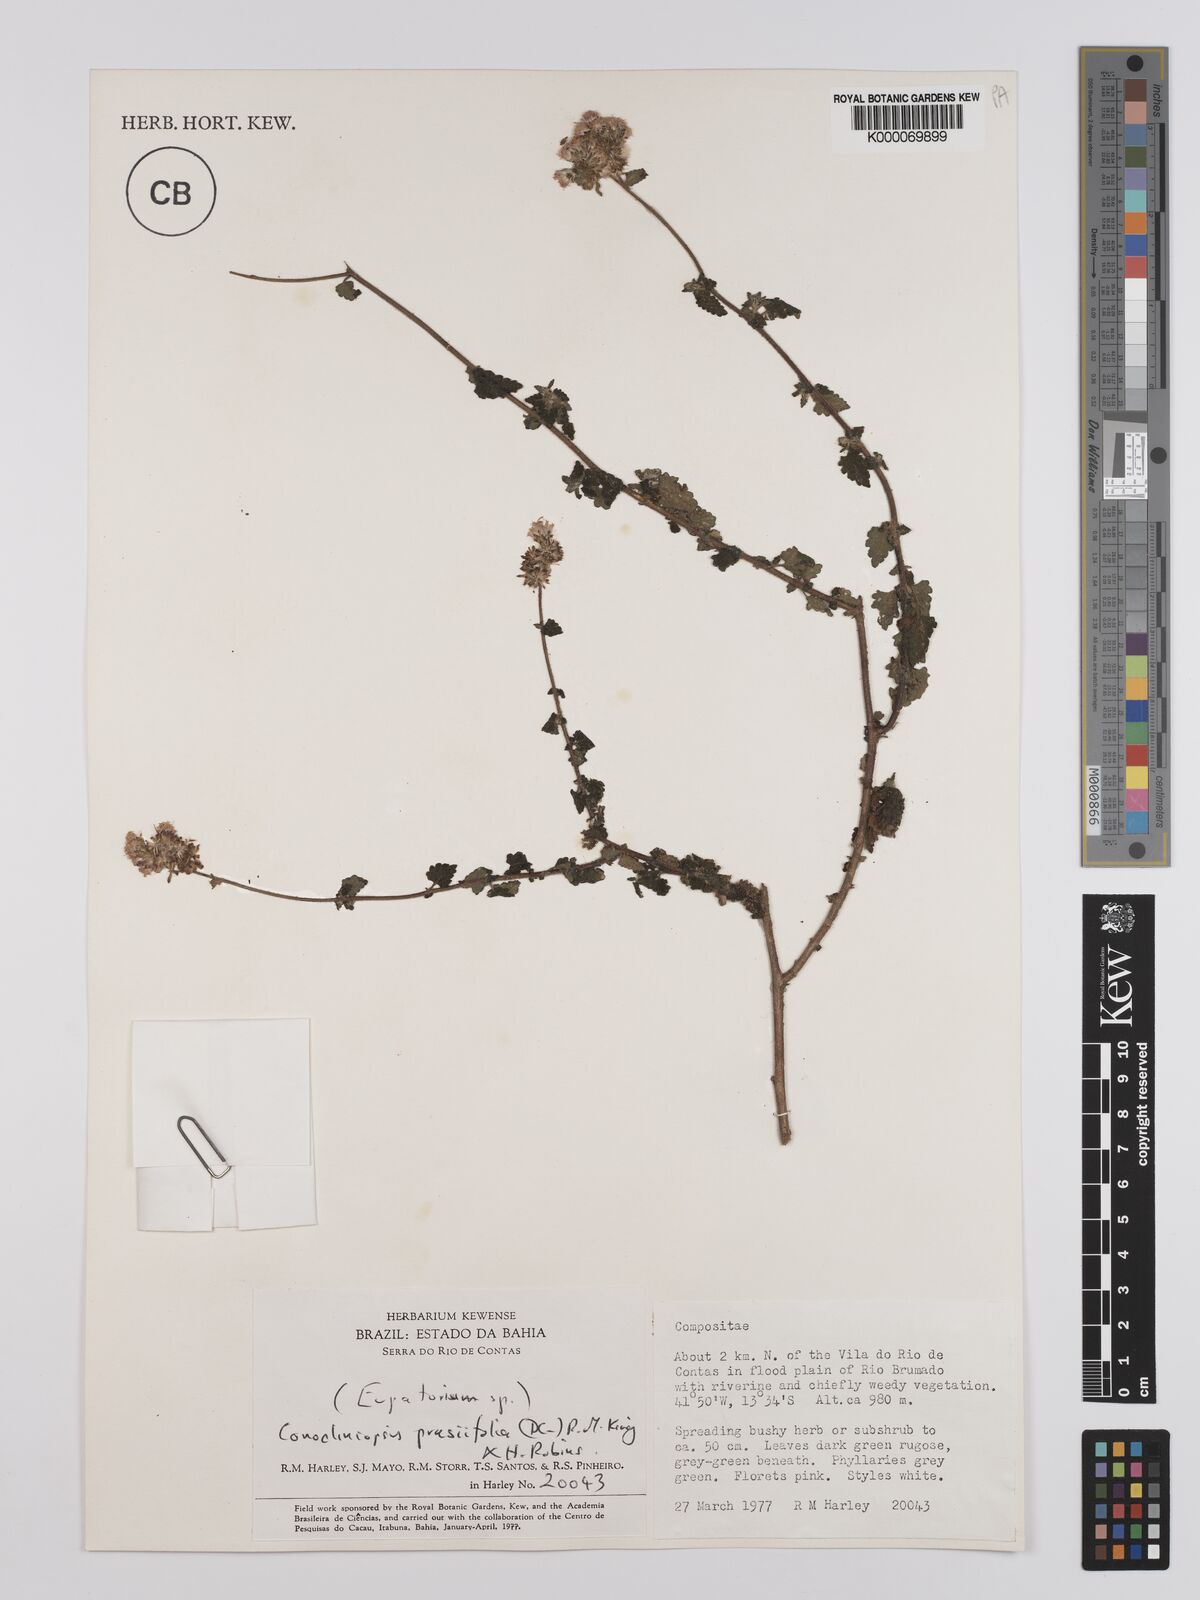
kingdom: Plantae
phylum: Tracheophyta
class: Magnoliopsida
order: Asterales
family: Asteraceae
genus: Conocliniopsis
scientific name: Conocliniopsis grossedentata
